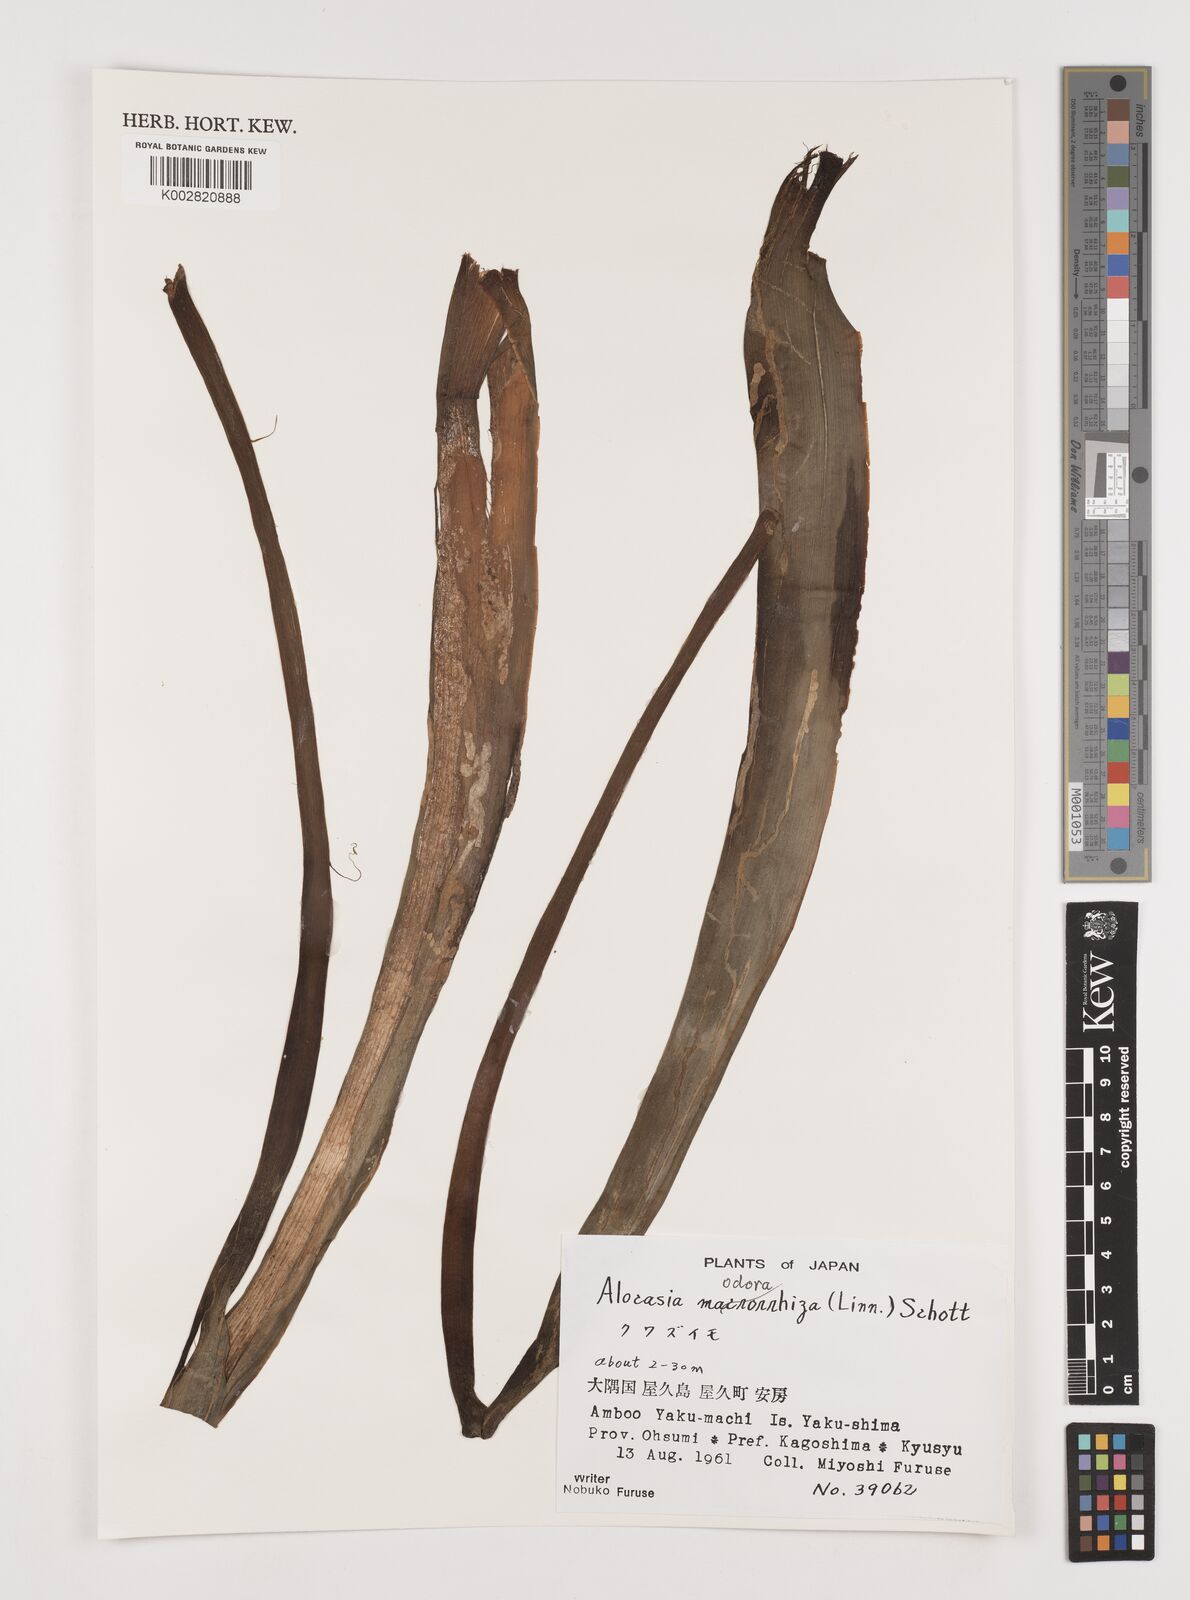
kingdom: Plantae
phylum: Tracheophyta
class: Liliopsida
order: Alismatales
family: Araceae
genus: Alocasia
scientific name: Alocasia
